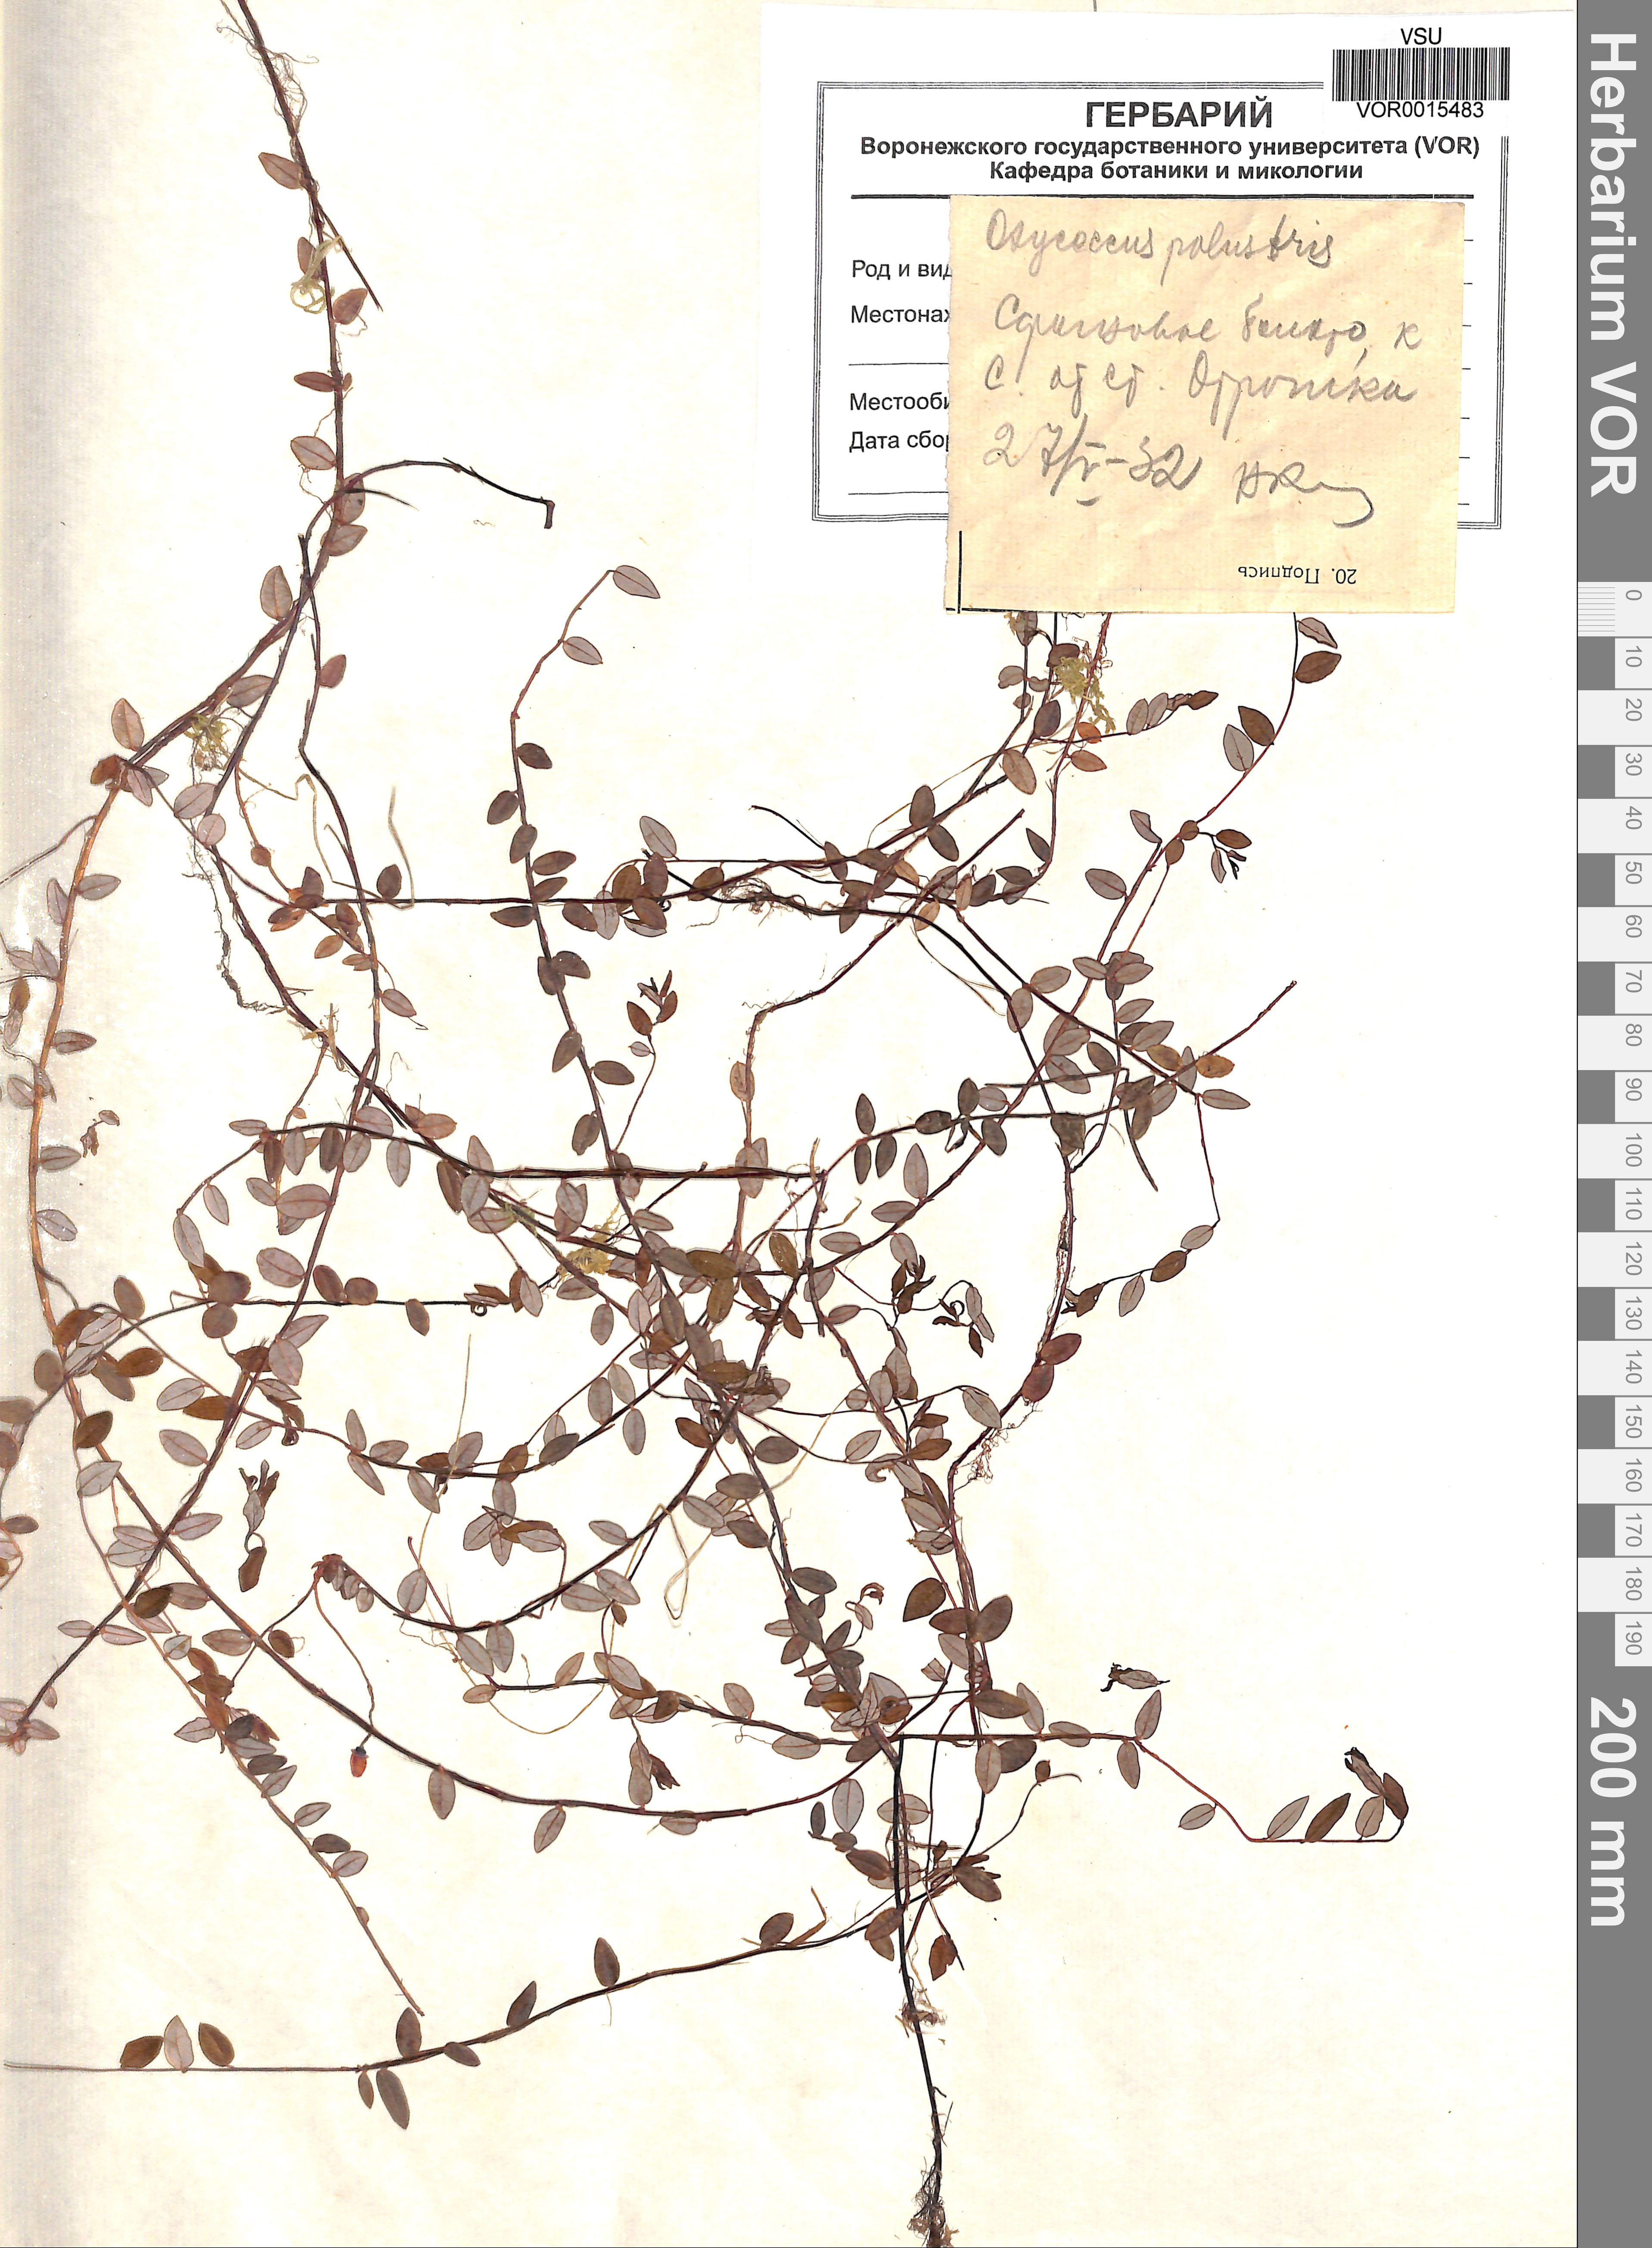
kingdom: Plantae
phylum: Tracheophyta
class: Magnoliopsida
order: Ericales
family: Ericaceae
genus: Vaccinium
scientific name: Vaccinium oxycoccos
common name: Cranberry
